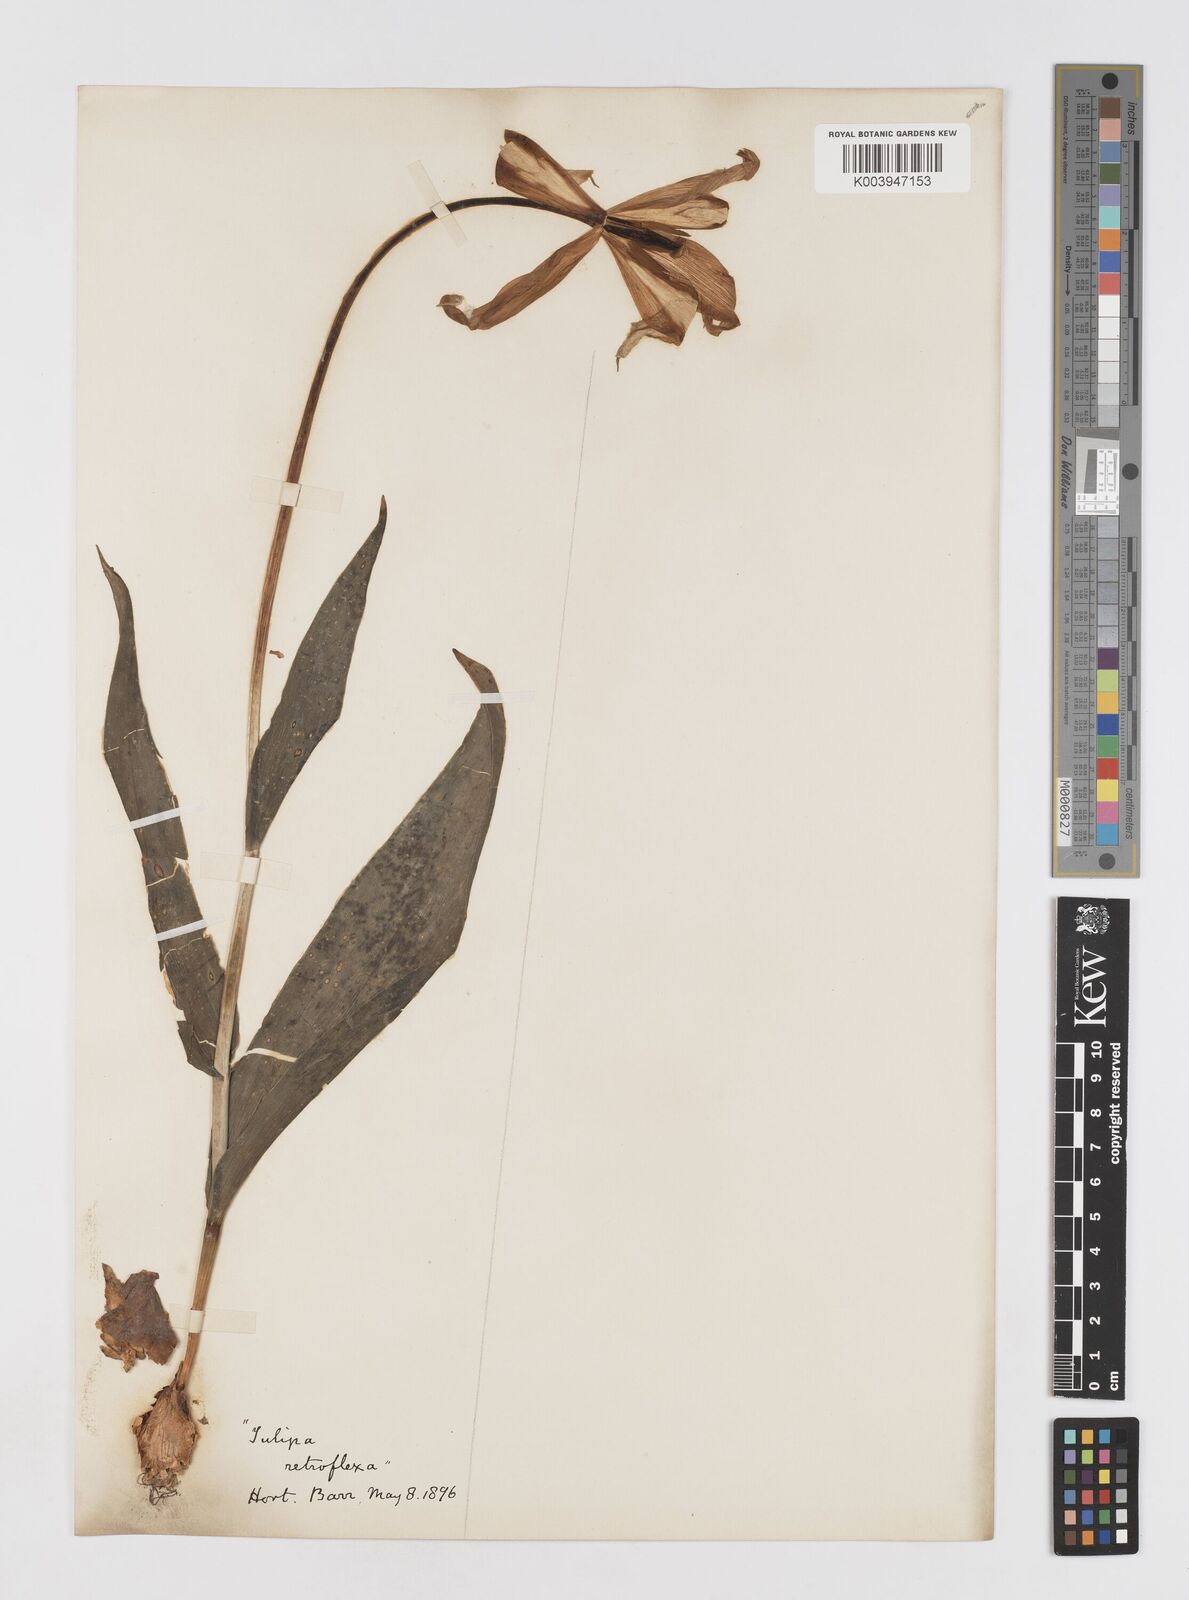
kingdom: Plantae
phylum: Tracheophyta
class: Liliopsida
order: Liliales
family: Liliaceae
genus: Tulipa
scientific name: Tulipa gesneriana
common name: Garden tulip
